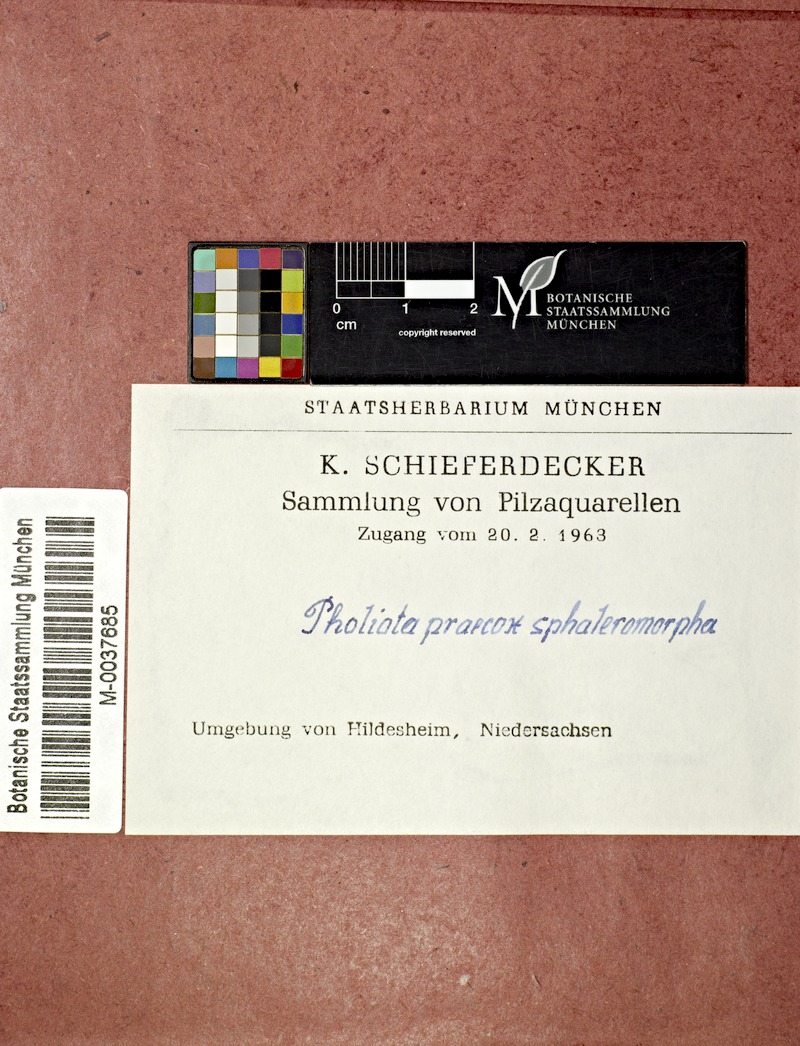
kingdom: Fungi
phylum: Basidiomycota
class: Agaricomycetes
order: Agaricales
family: Strophariaceae
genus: Agrocybe
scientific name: Agrocybe praecox
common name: Spring fieldcap
